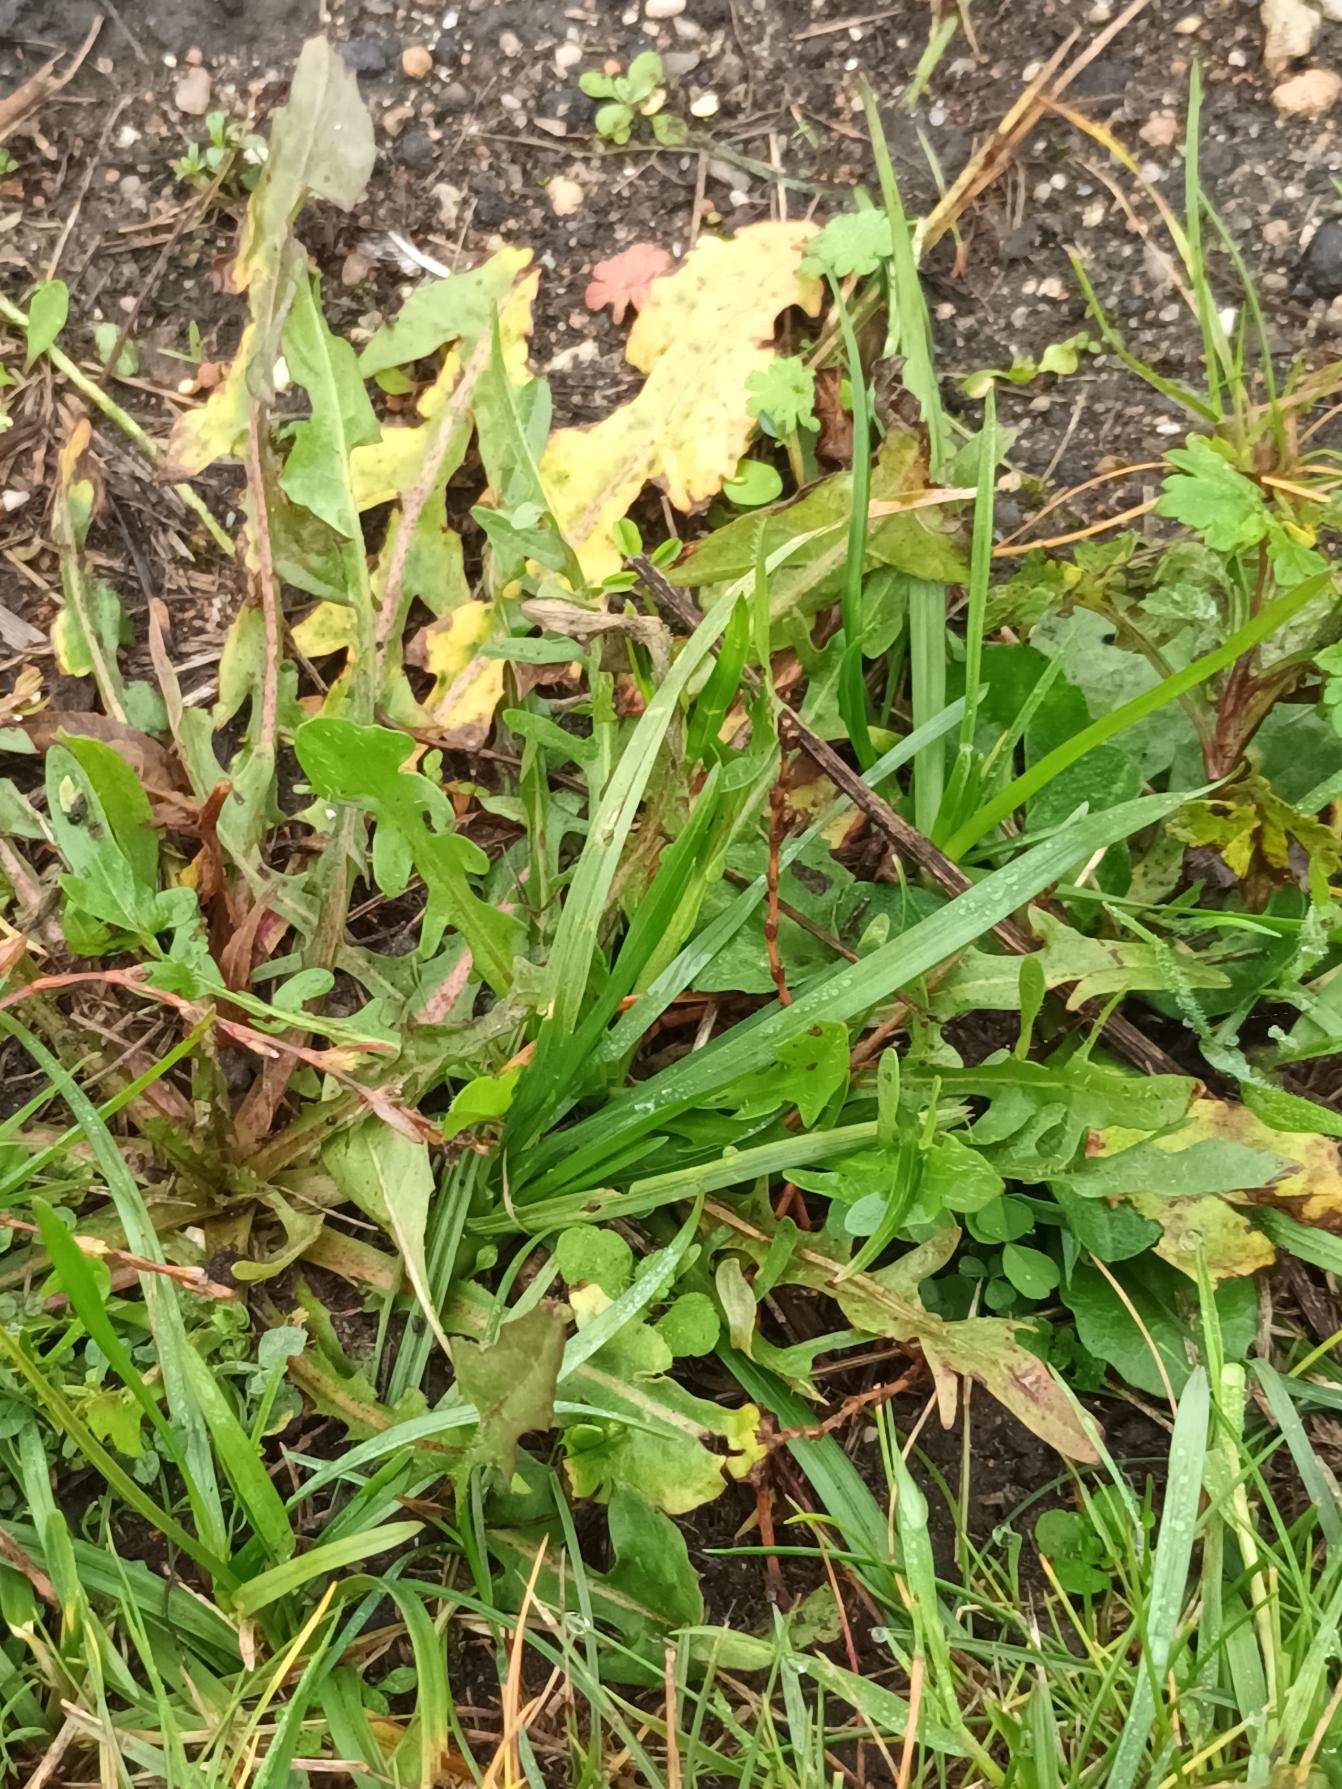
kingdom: Plantae
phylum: Tracheophyta
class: Magnoliopsida
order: Asterales
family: Asteraceae
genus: Taraxacum
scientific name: Taraxacum
